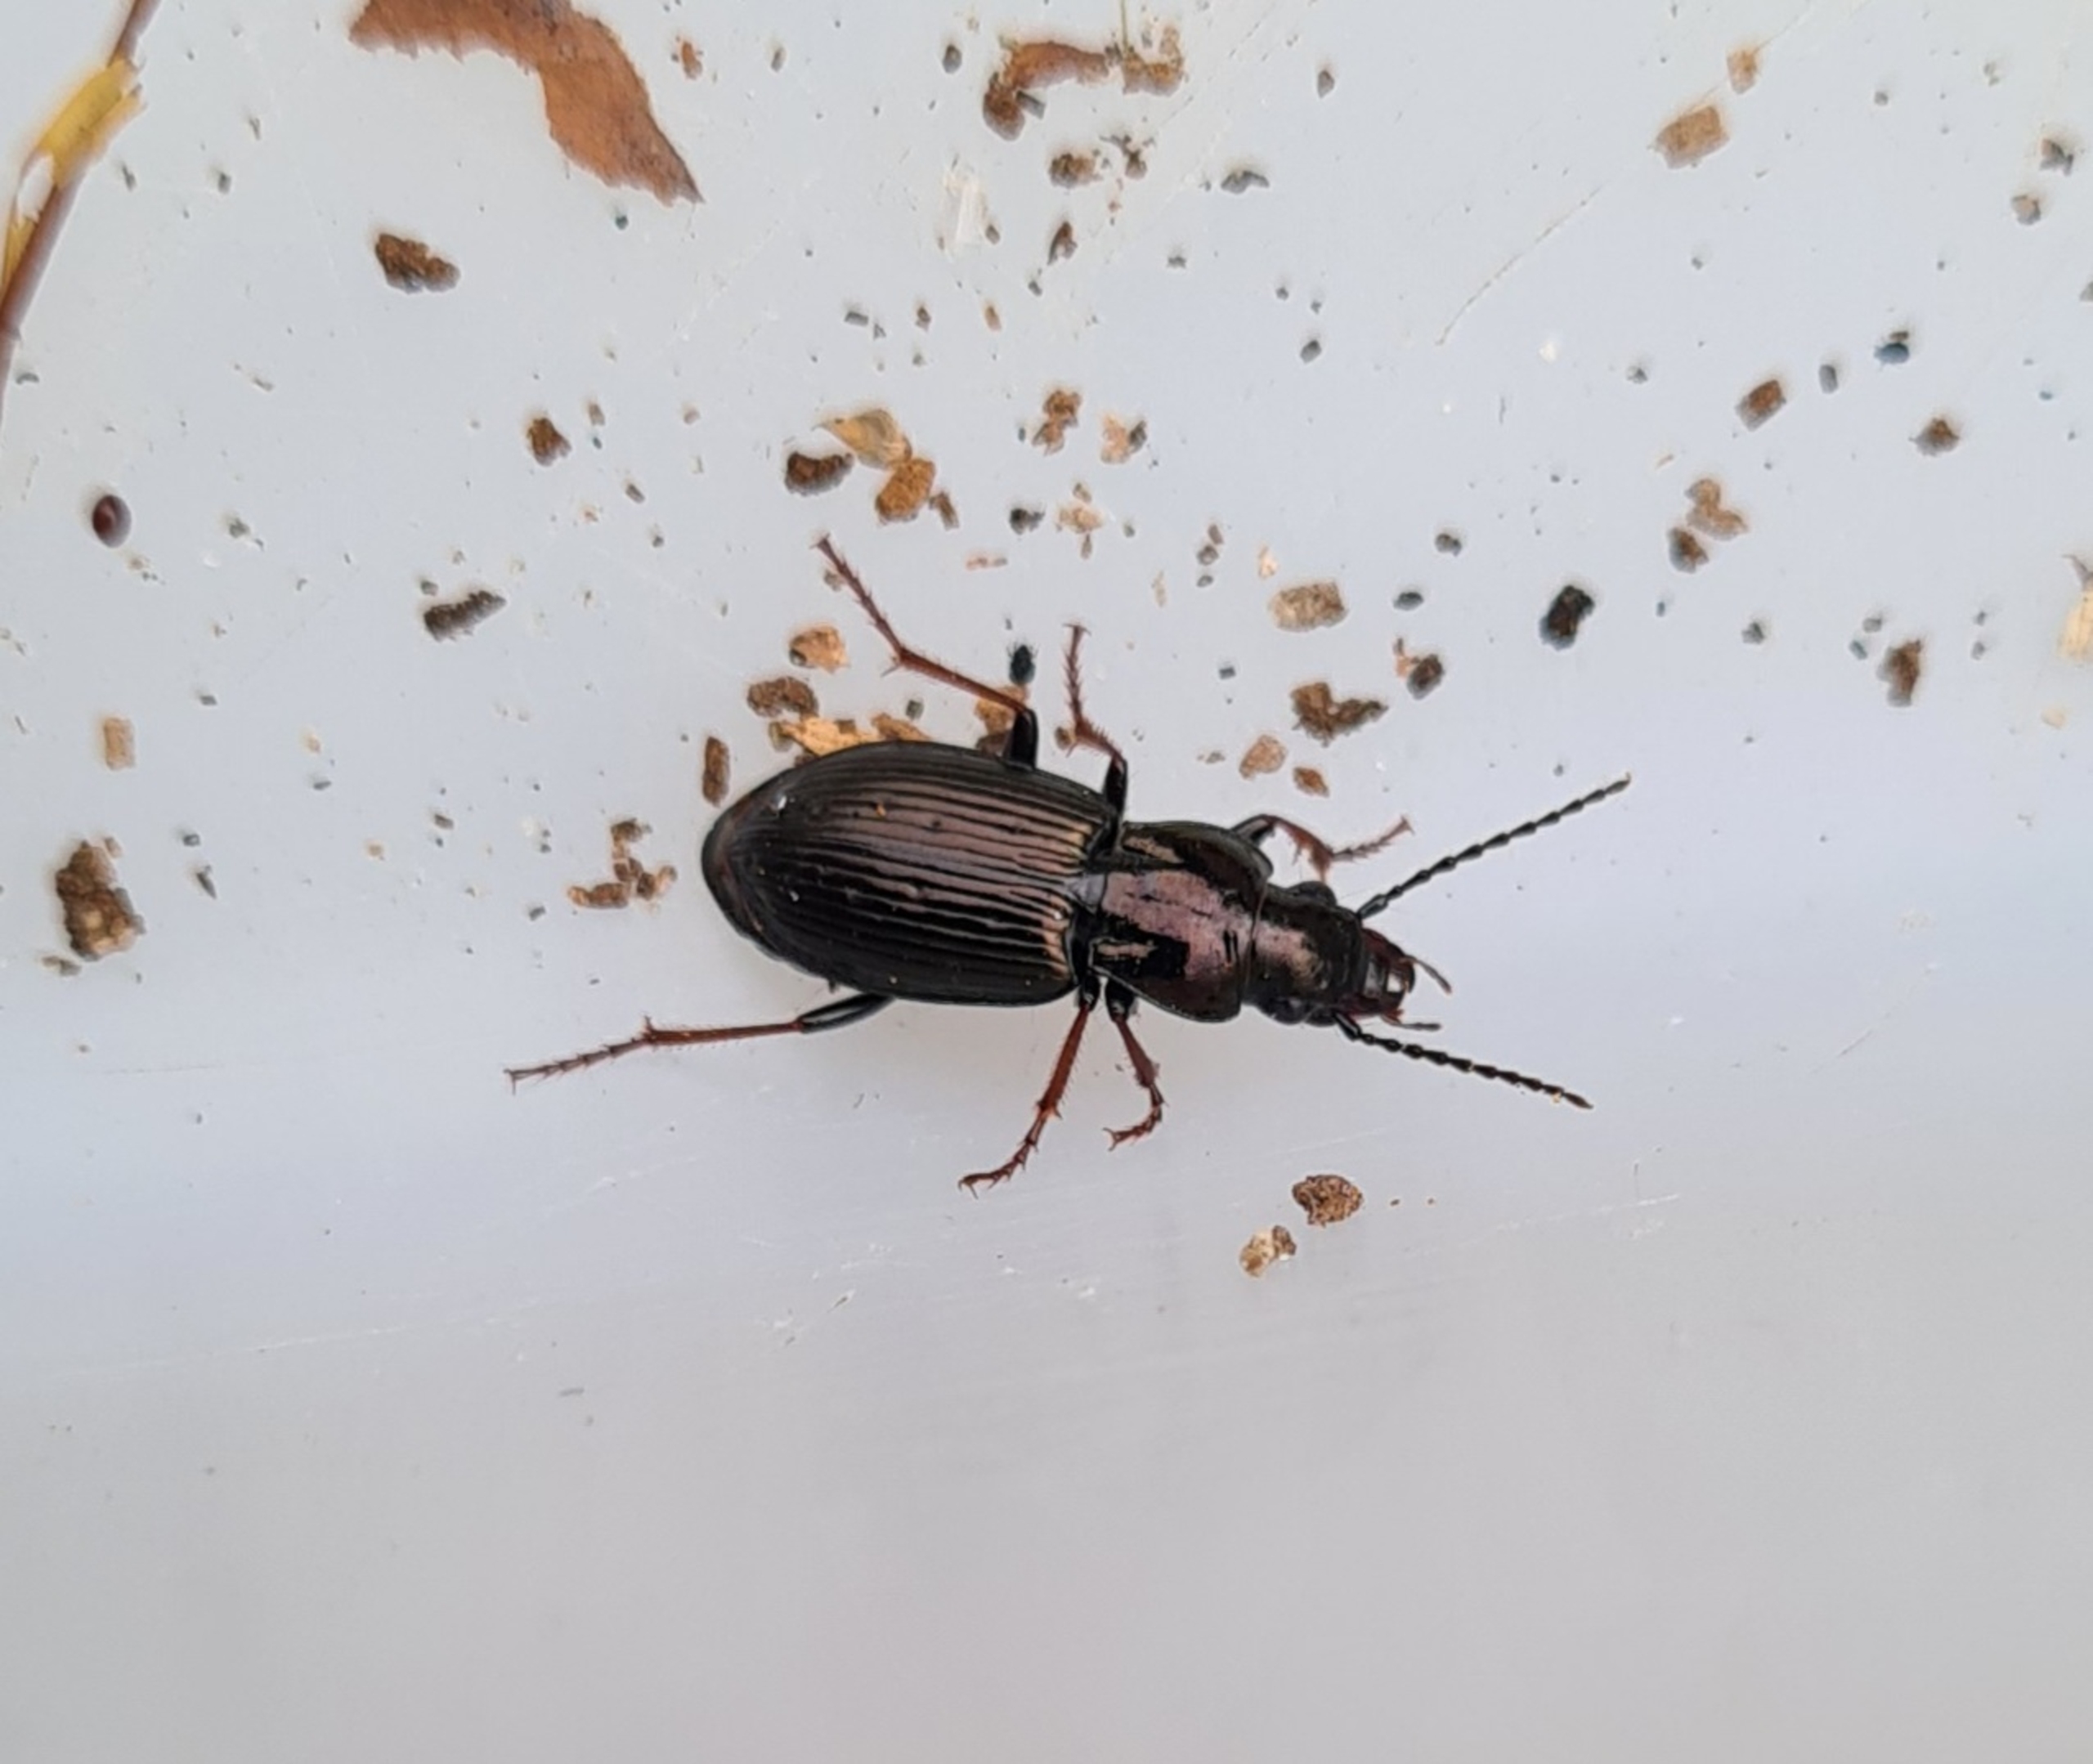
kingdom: Animalia
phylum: Arthropoda
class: Insecta
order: Coleoptera
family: Carabidae
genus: Pterostichus
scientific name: Pterostichus oblongopunctatus
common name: Bronzejordløber
